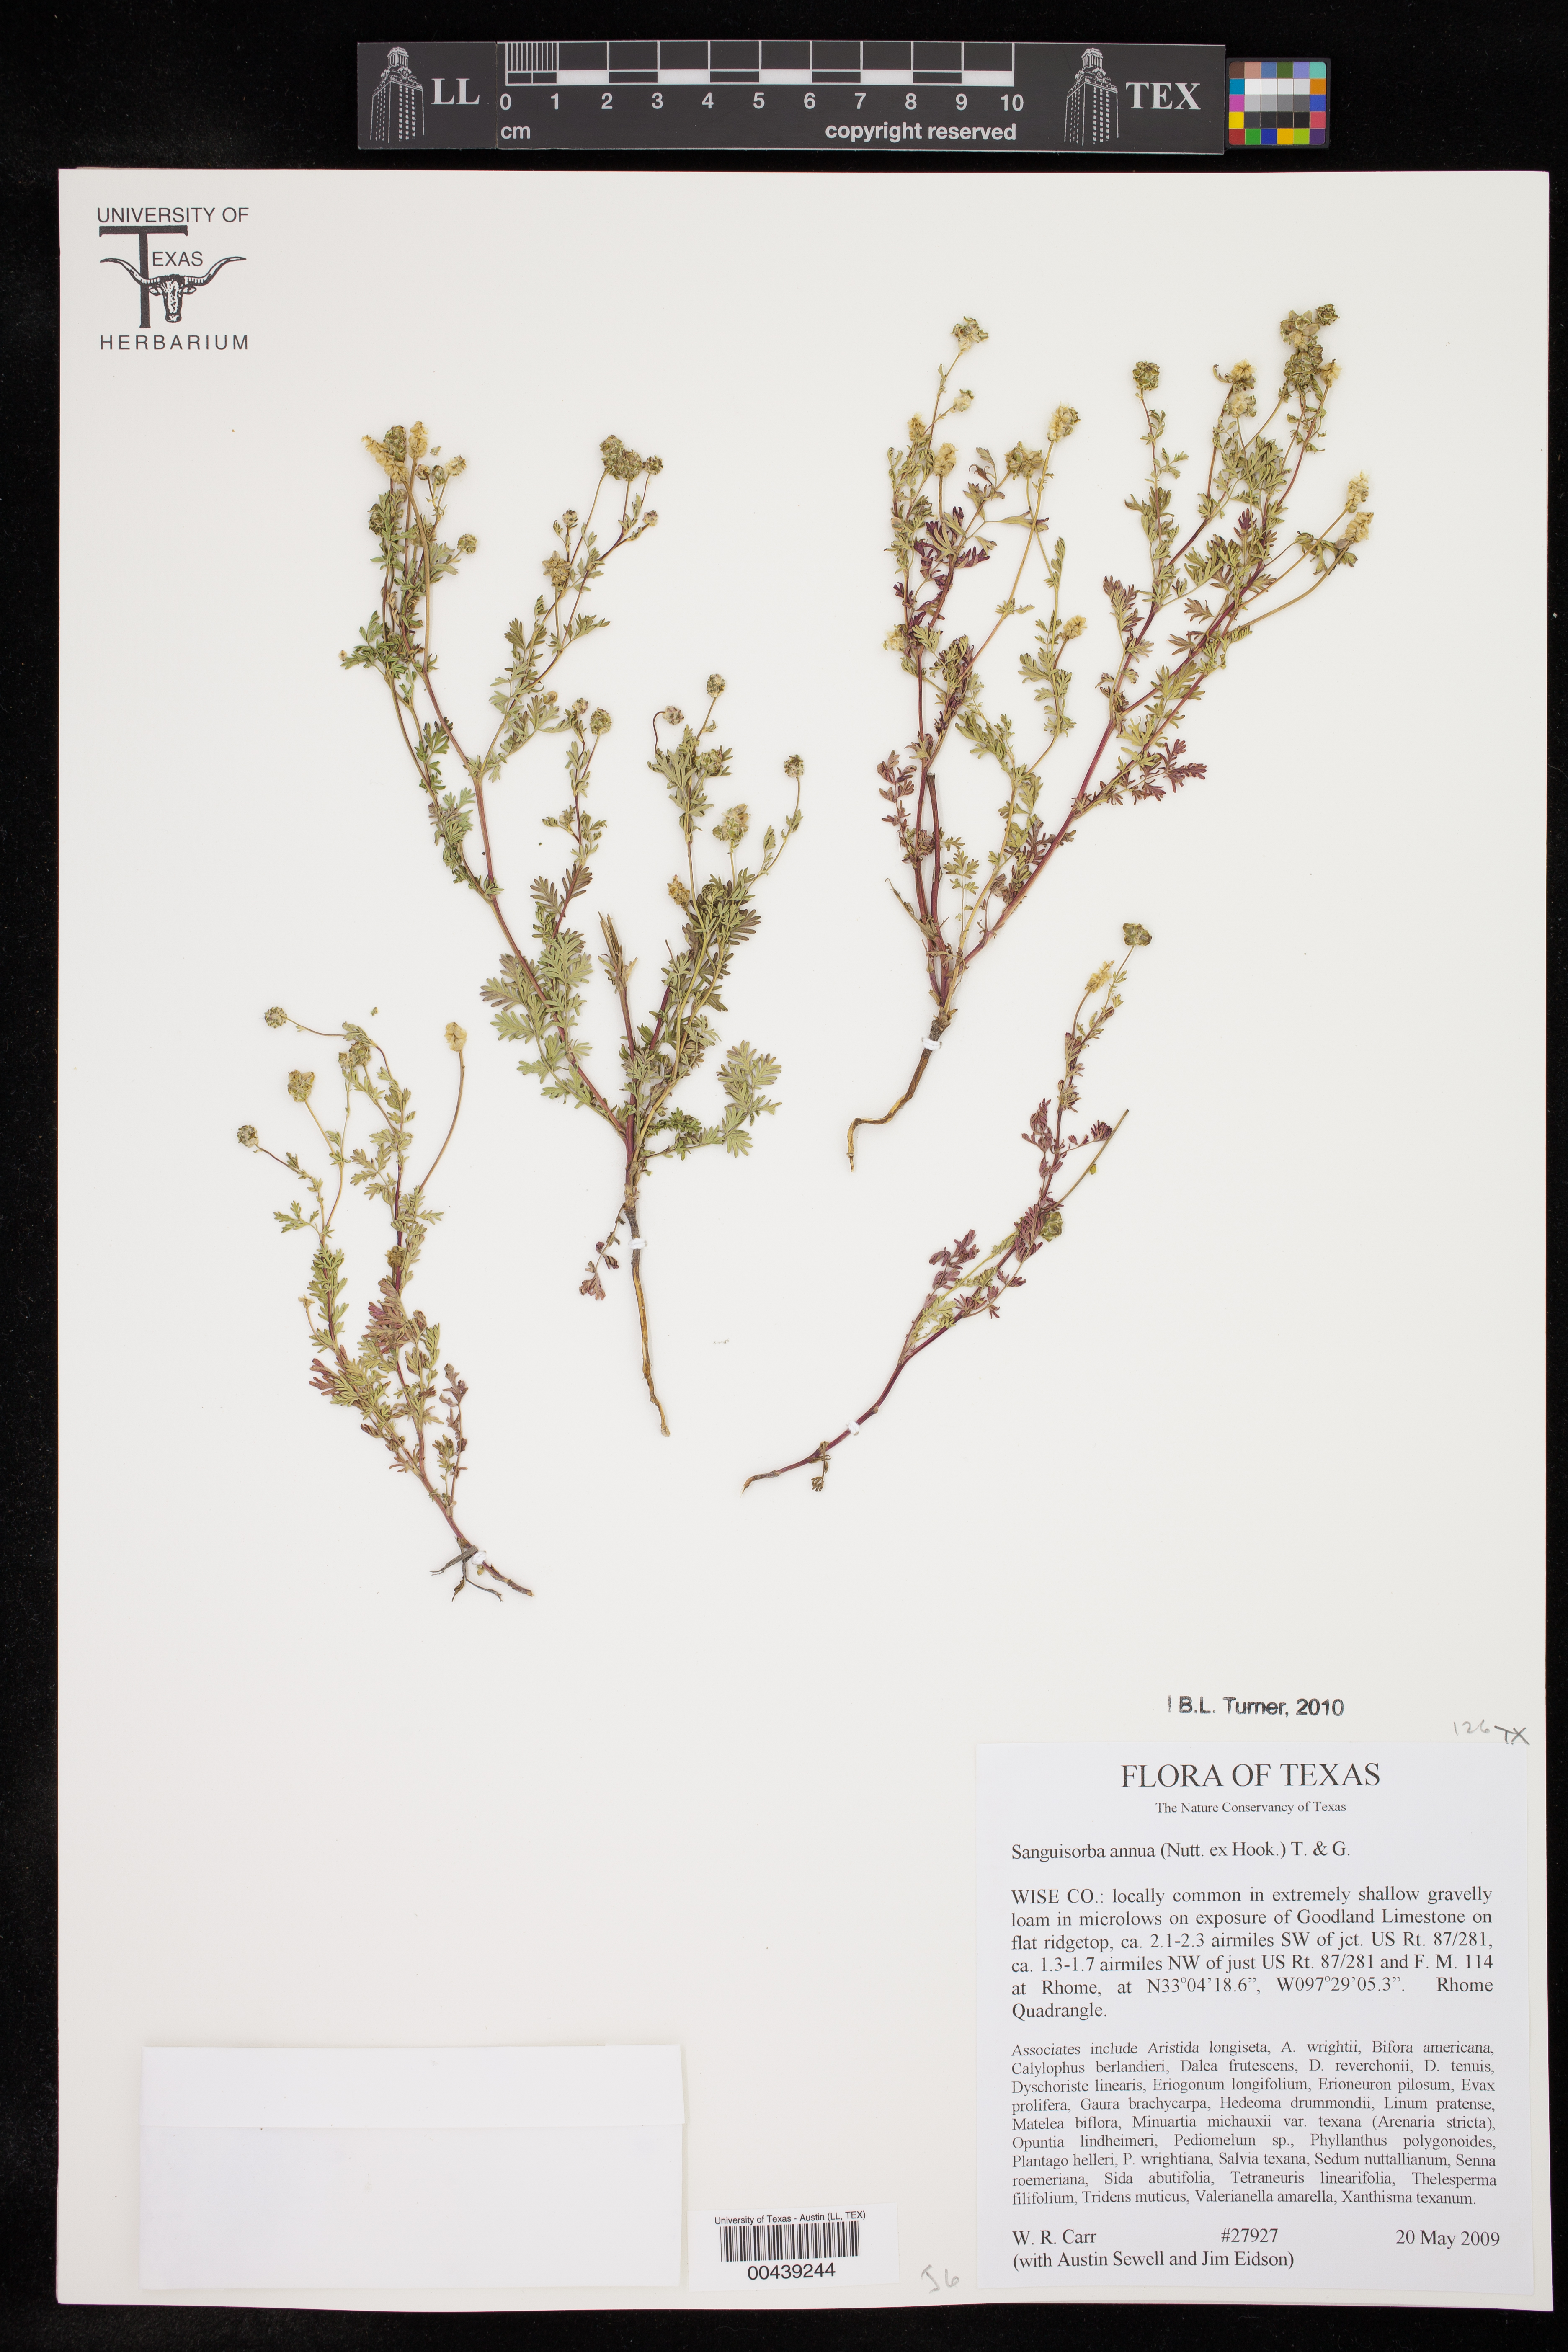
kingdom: Plantae
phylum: Tracheophyta
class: Magnoliopsida
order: Rosales
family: Rosaceae
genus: Poteridium
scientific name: Poteridium annuum
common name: Annual burnet
